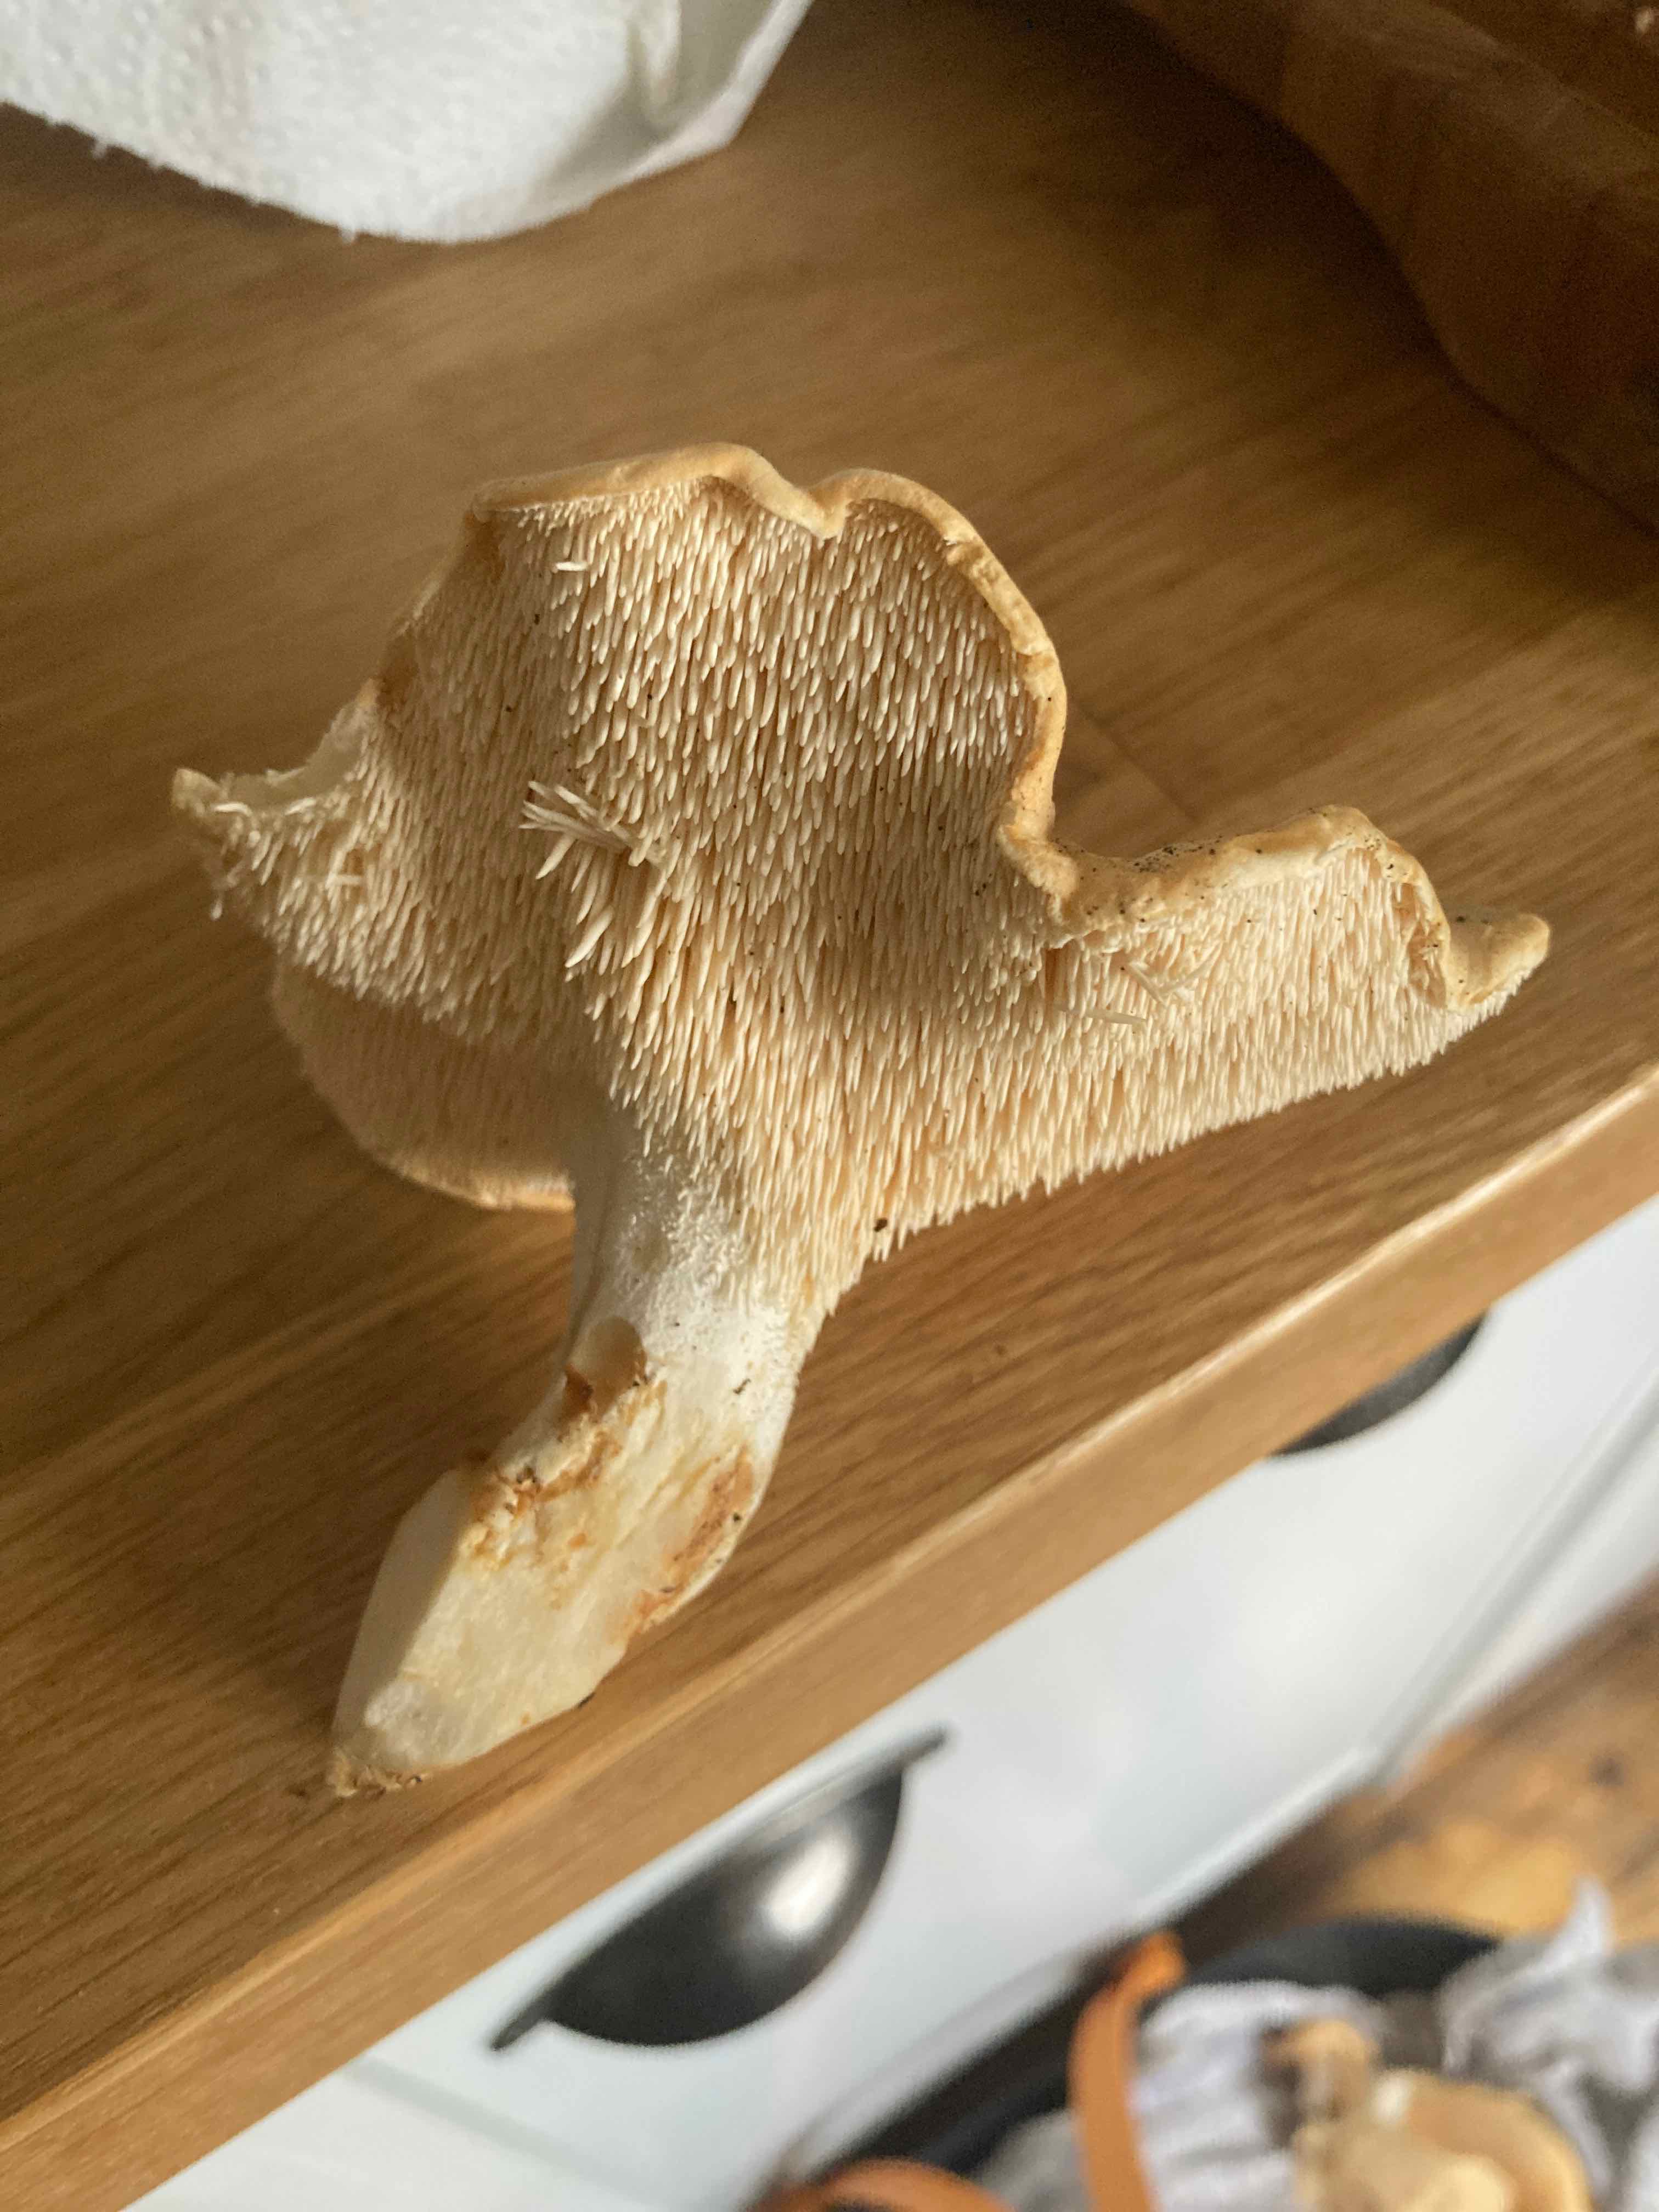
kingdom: Fungi
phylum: Basidiomycota
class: Agaricomycetes
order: Cantharellales
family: Hydnaceae
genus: Hydnum
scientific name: Hydnum
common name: pigsvamp
